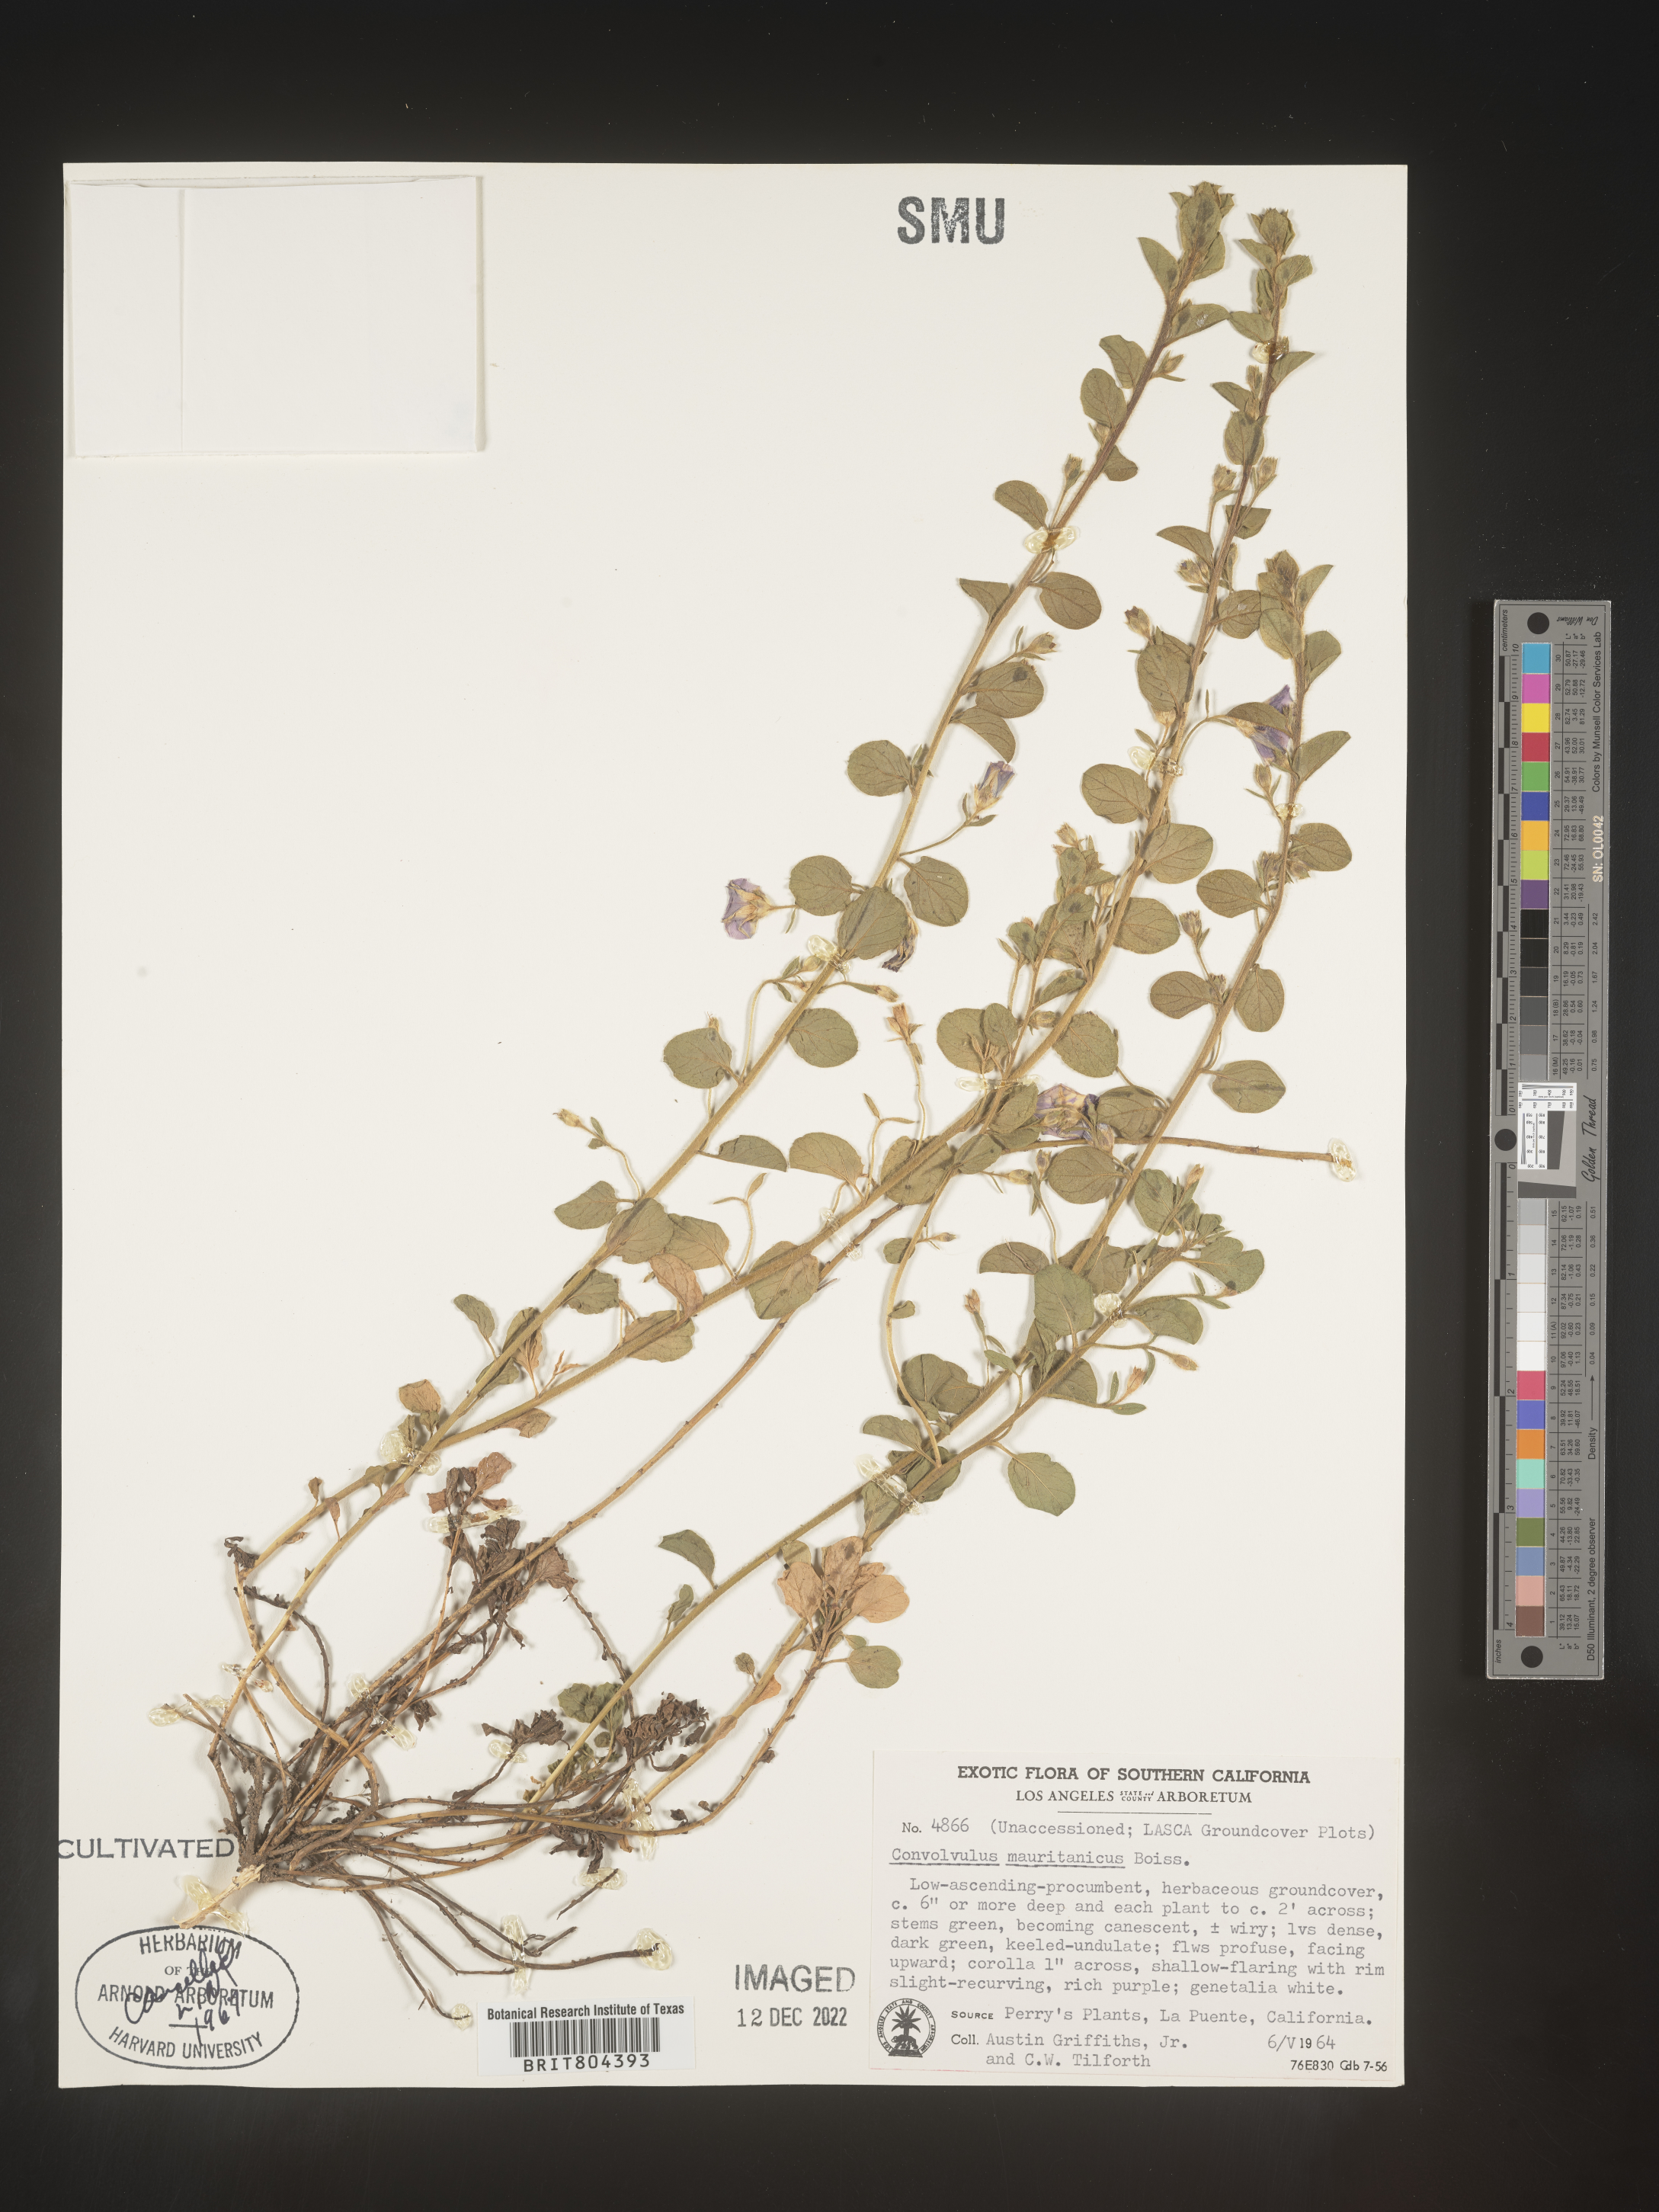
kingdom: Plantae
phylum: Tracheophyta
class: Magnoliopsida
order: Solanales
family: Convolvulaceae
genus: Convolvulus
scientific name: Convolvulus
